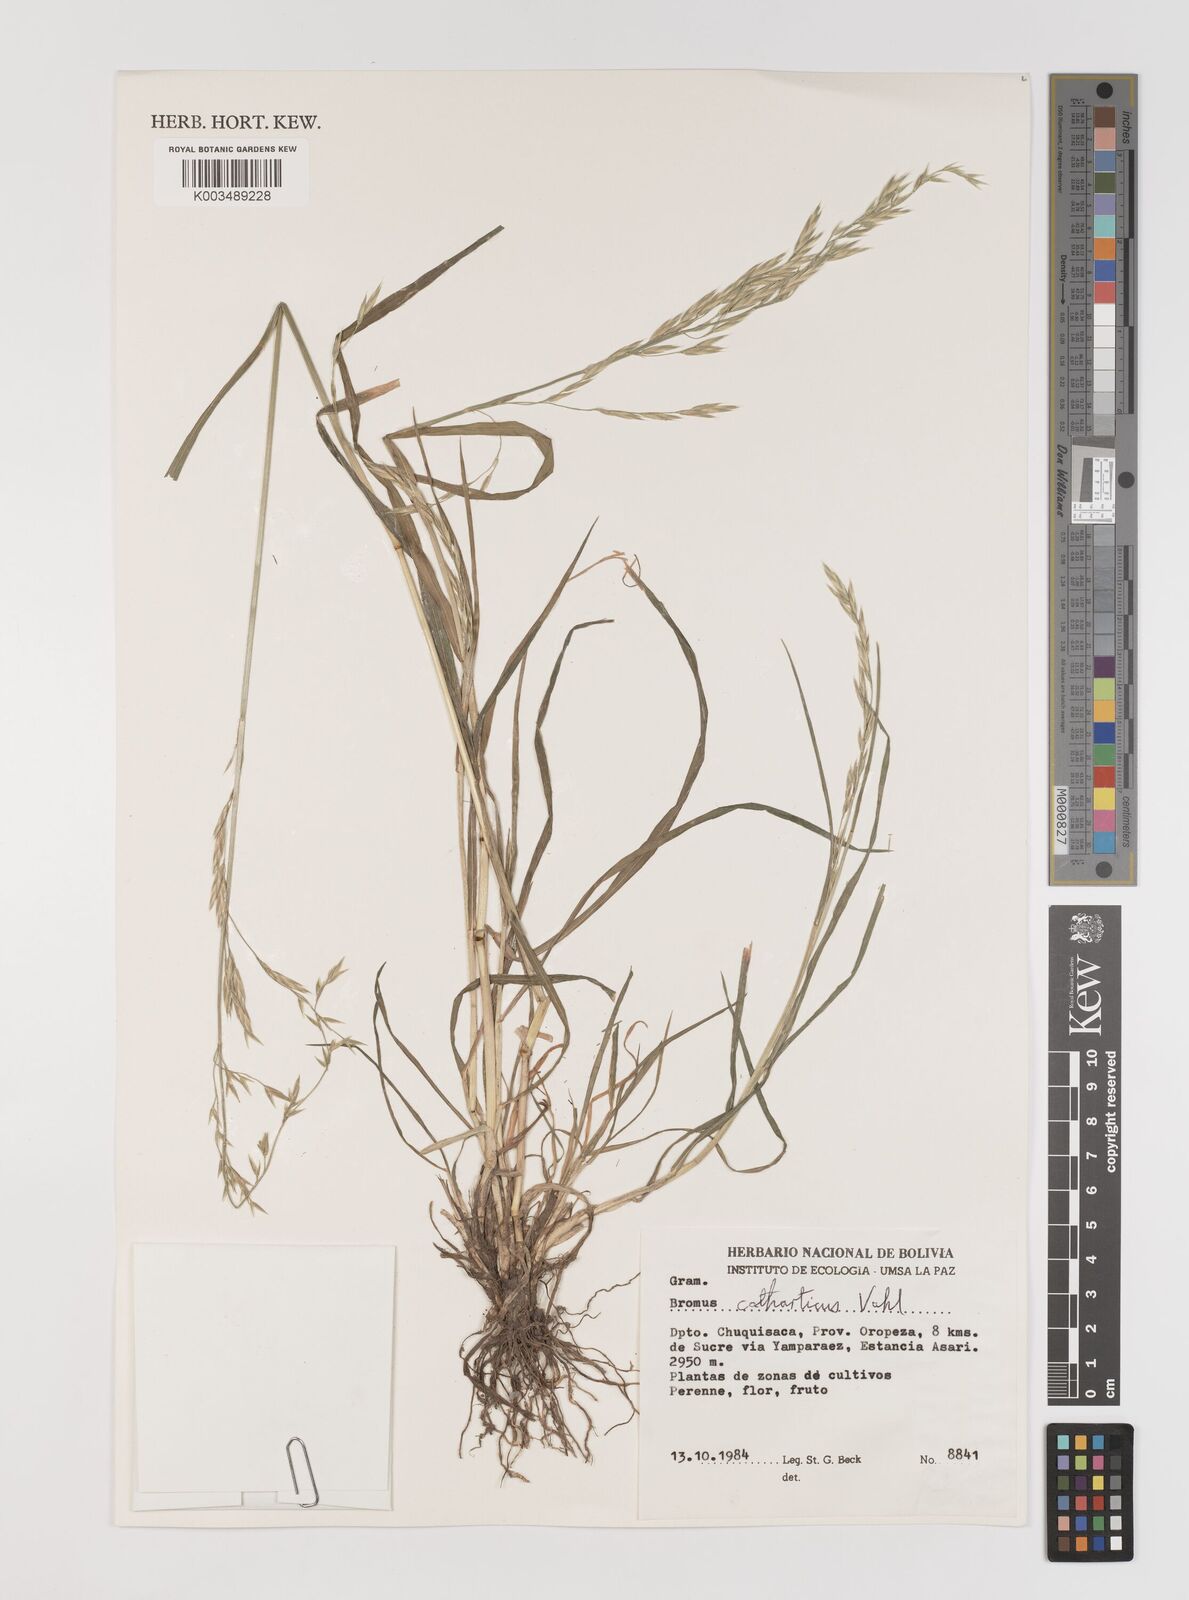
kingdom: Plantae
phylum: Tracheophyta
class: Liliopsida
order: Poales
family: Poaceae
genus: Bromus
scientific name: Bromus catharticus
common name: Rescuegrass
